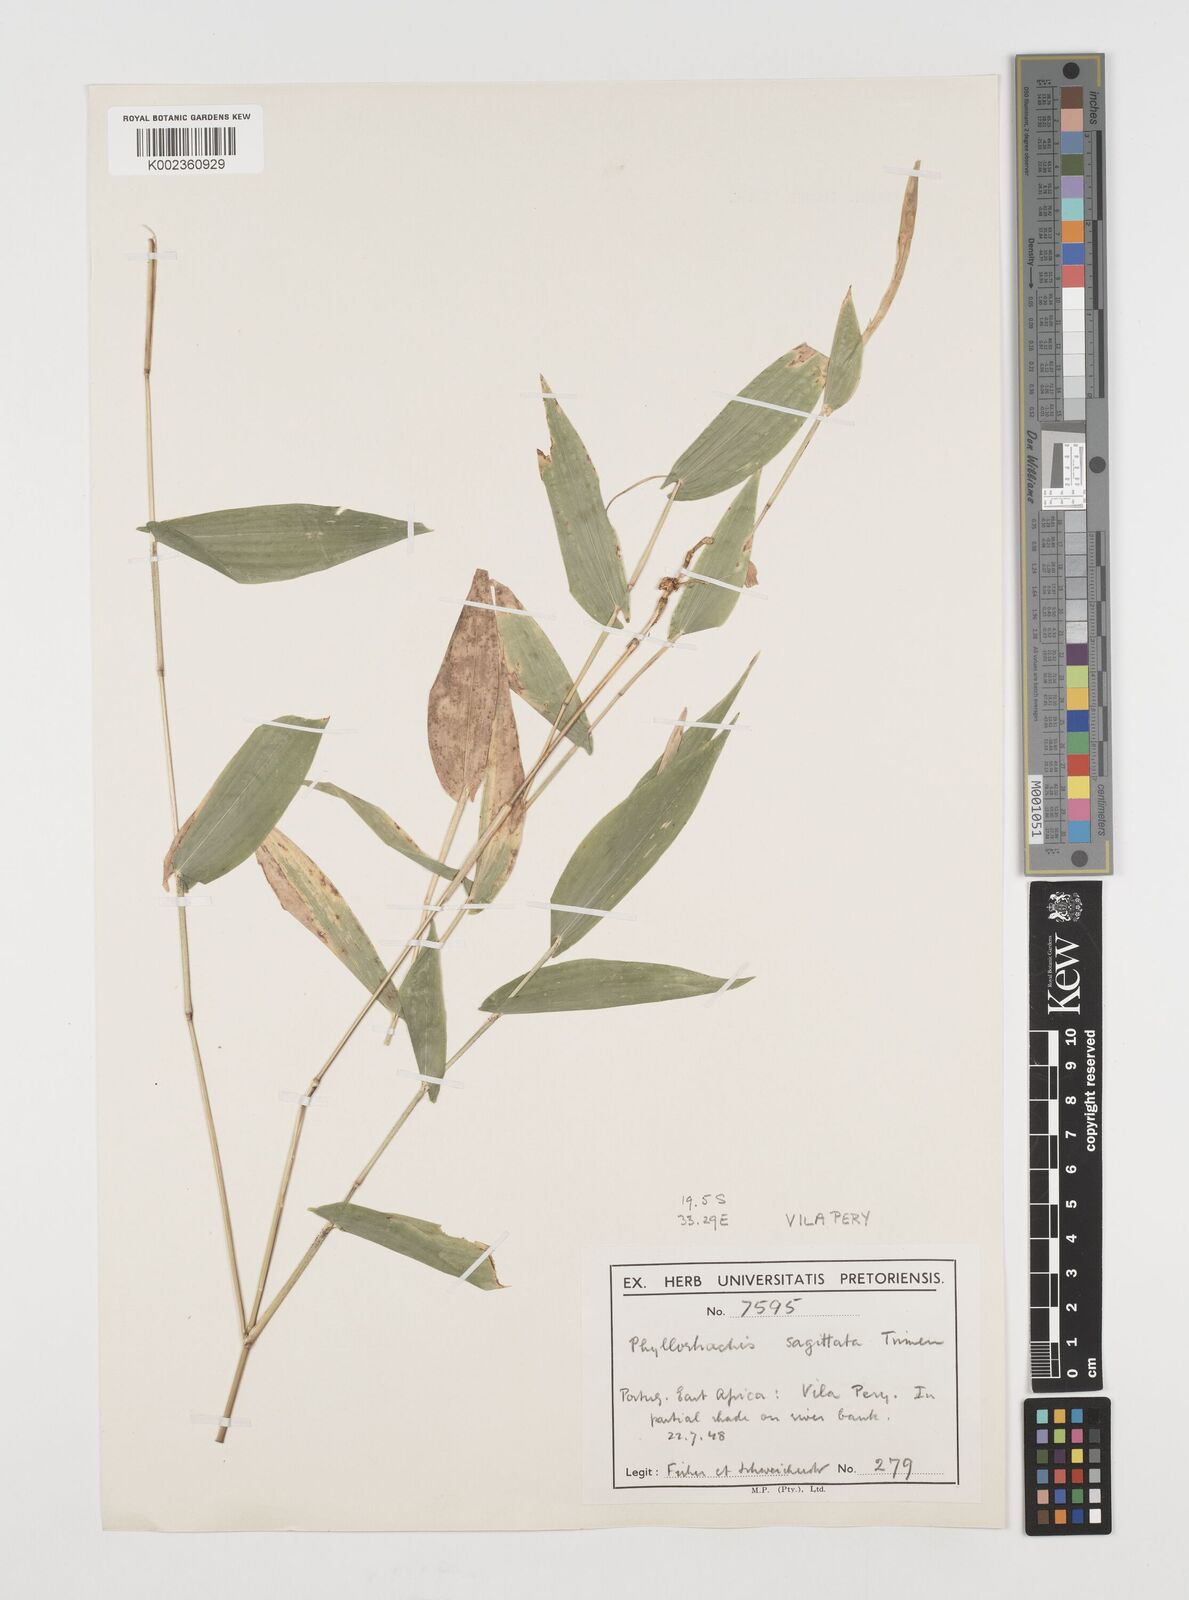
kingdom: Plantae
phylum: Tracheophyta
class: Liliopsida
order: Poales
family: Poaceae
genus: Phyllorachis
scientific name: Phyllorachis sagittata
